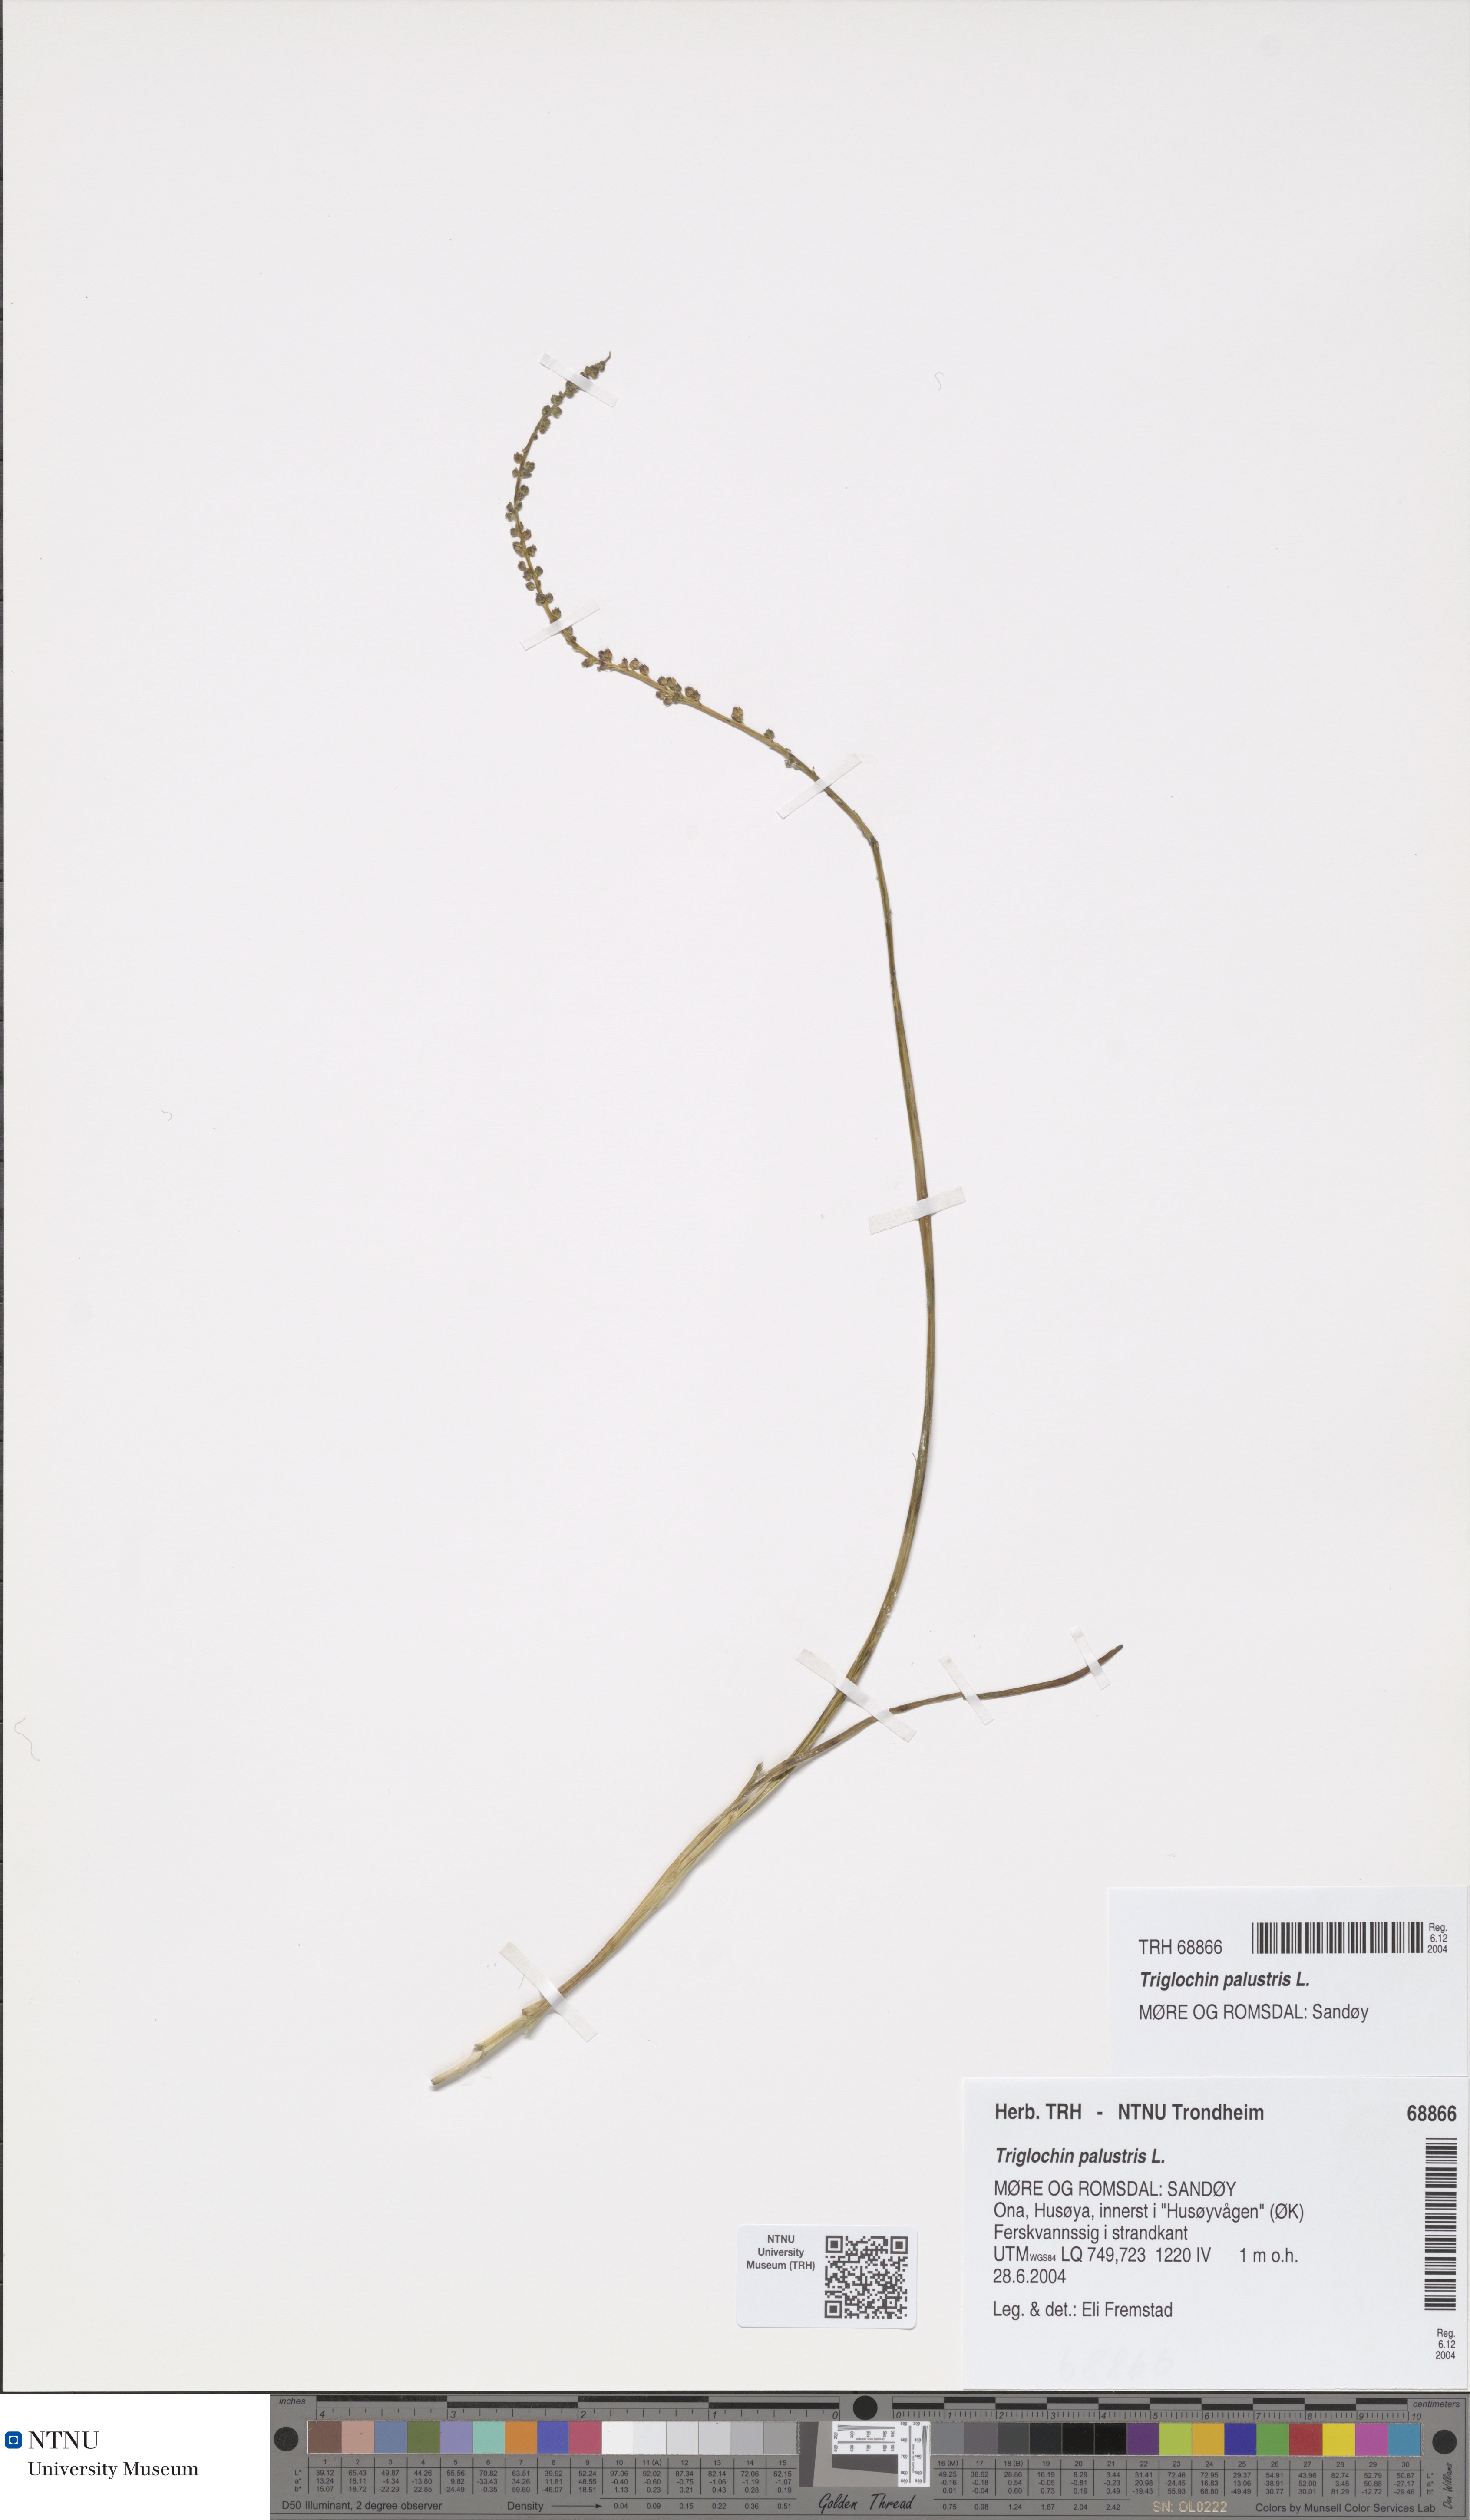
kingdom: Plantae
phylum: Tracheophyta
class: Liliopsida
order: Alismatales
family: Juncaginaceae
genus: Triglochin
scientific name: Triglochin palustris
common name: Marsh arrowgrass
